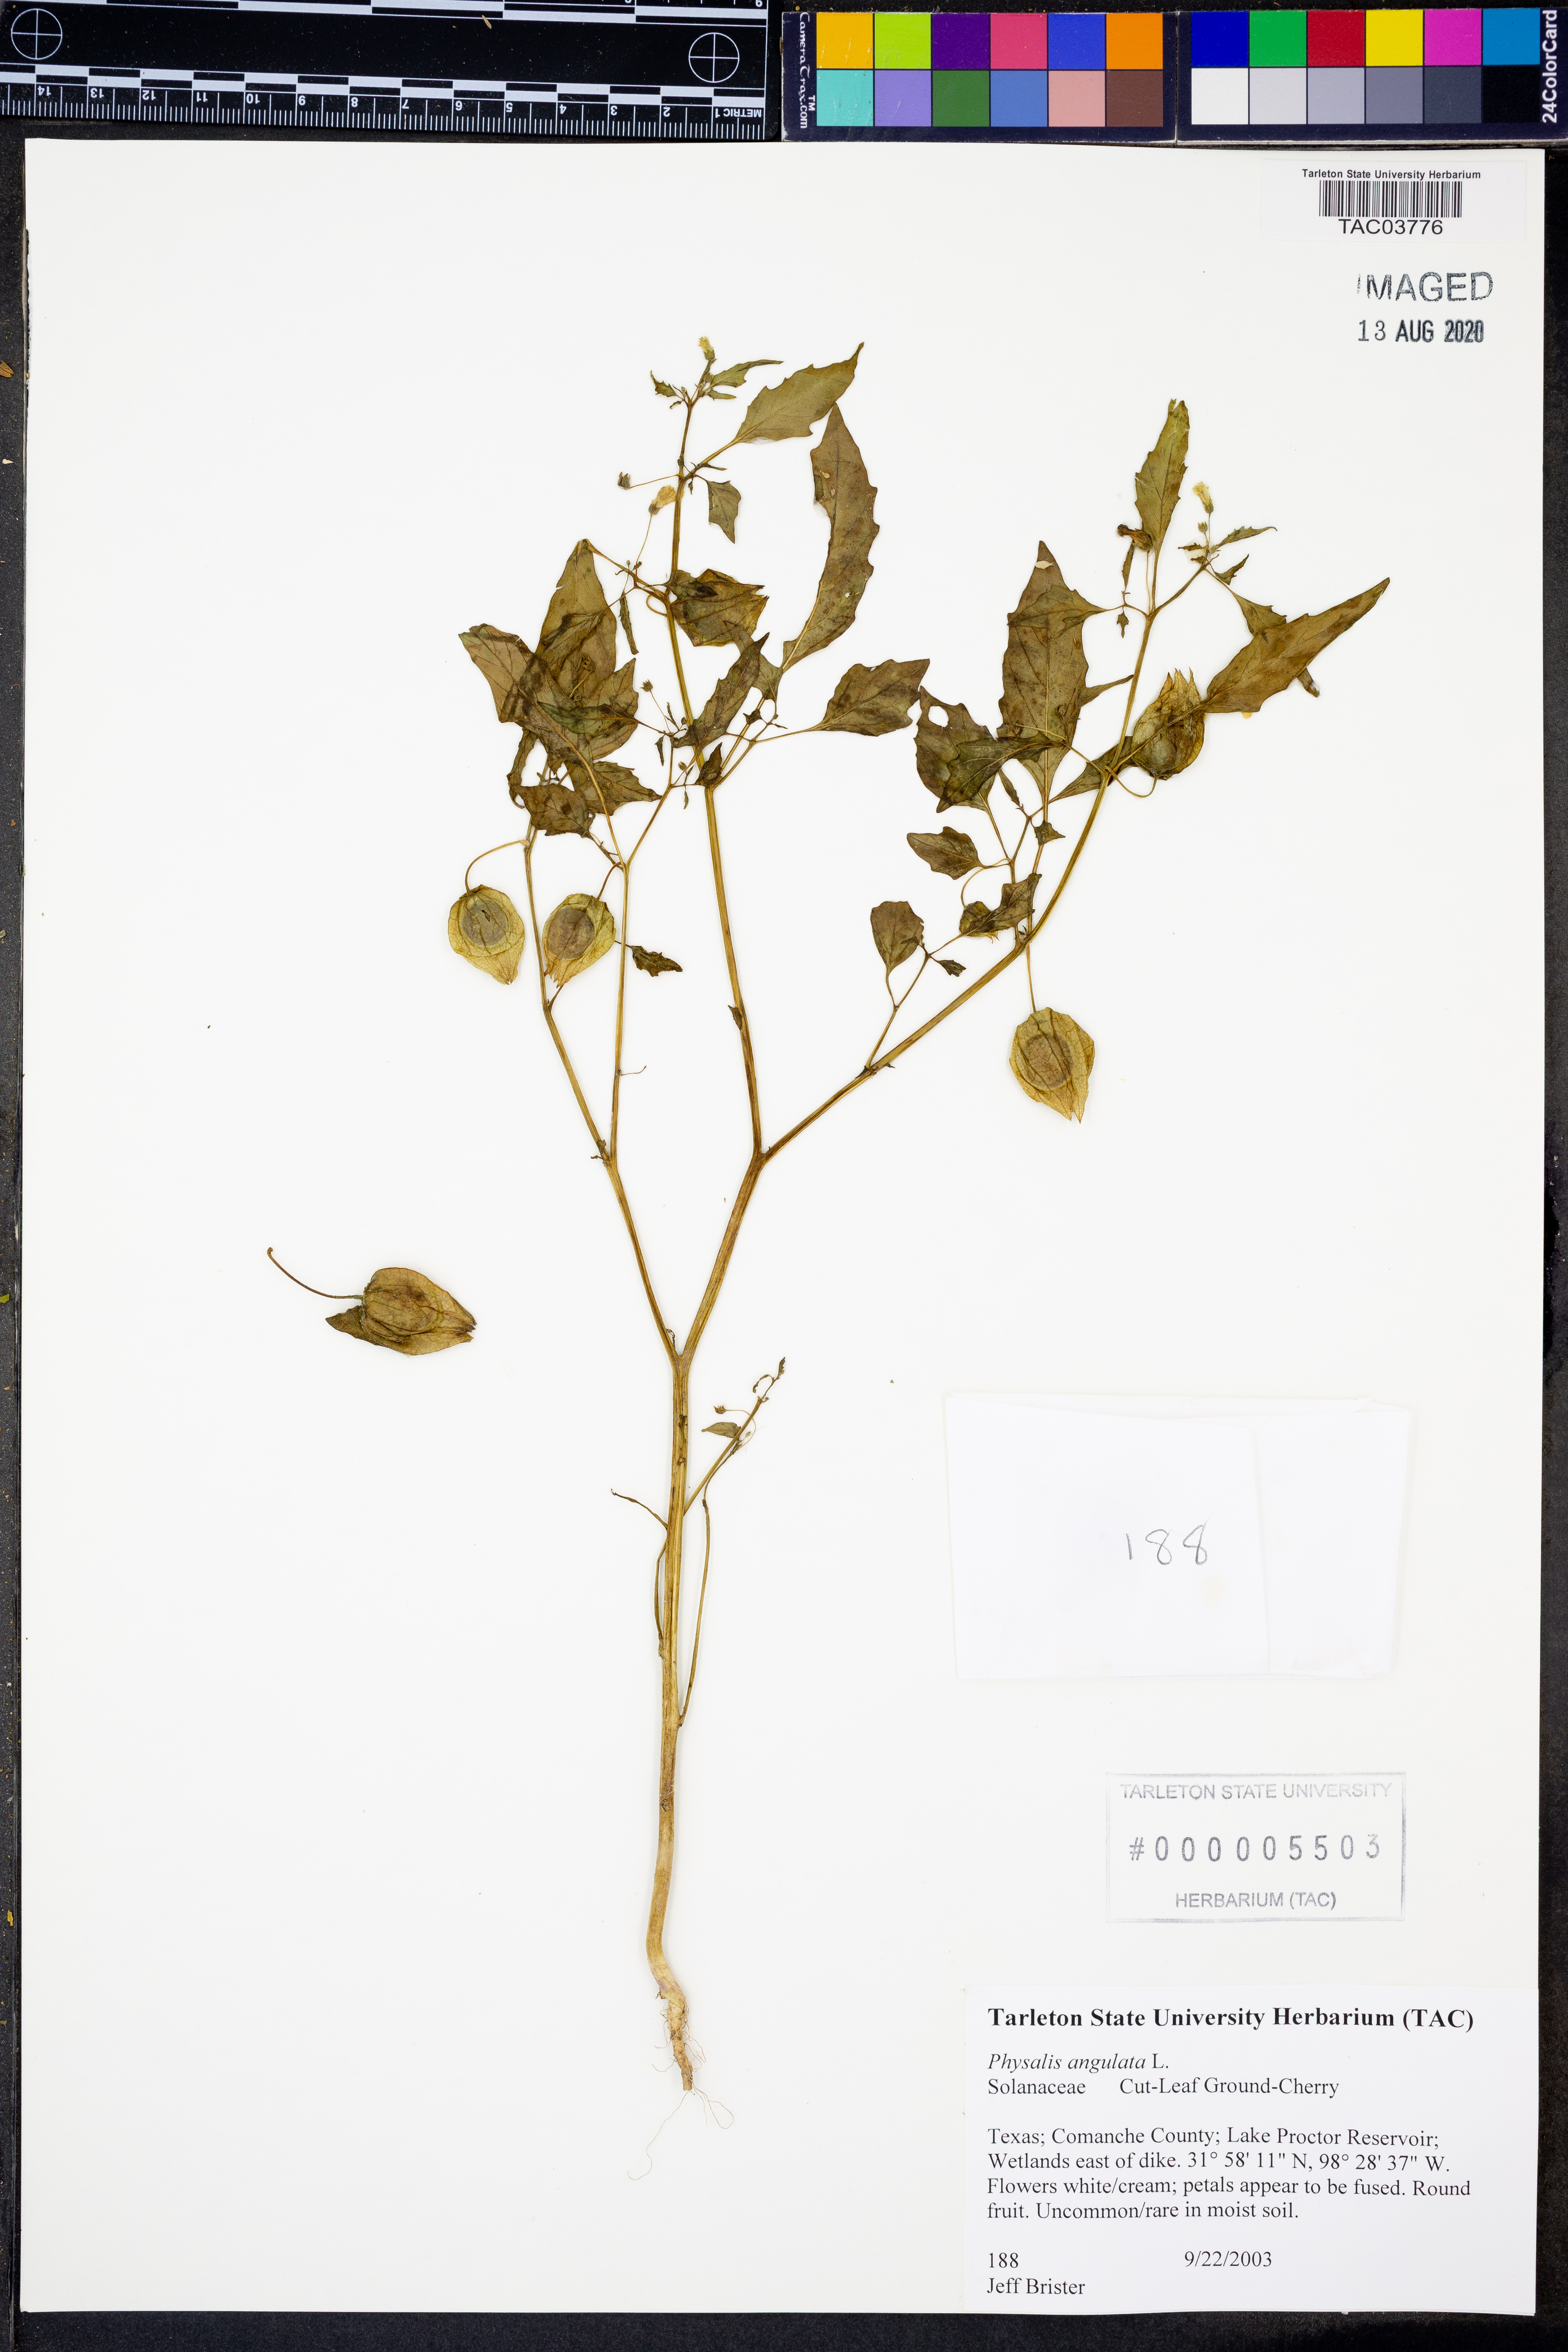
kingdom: Plantae
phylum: Tracheophyta
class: Magnoliopsida
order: Solanales
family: Solanaceae
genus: Physalis
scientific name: Physalis angulata
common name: Angular winter-cherry
